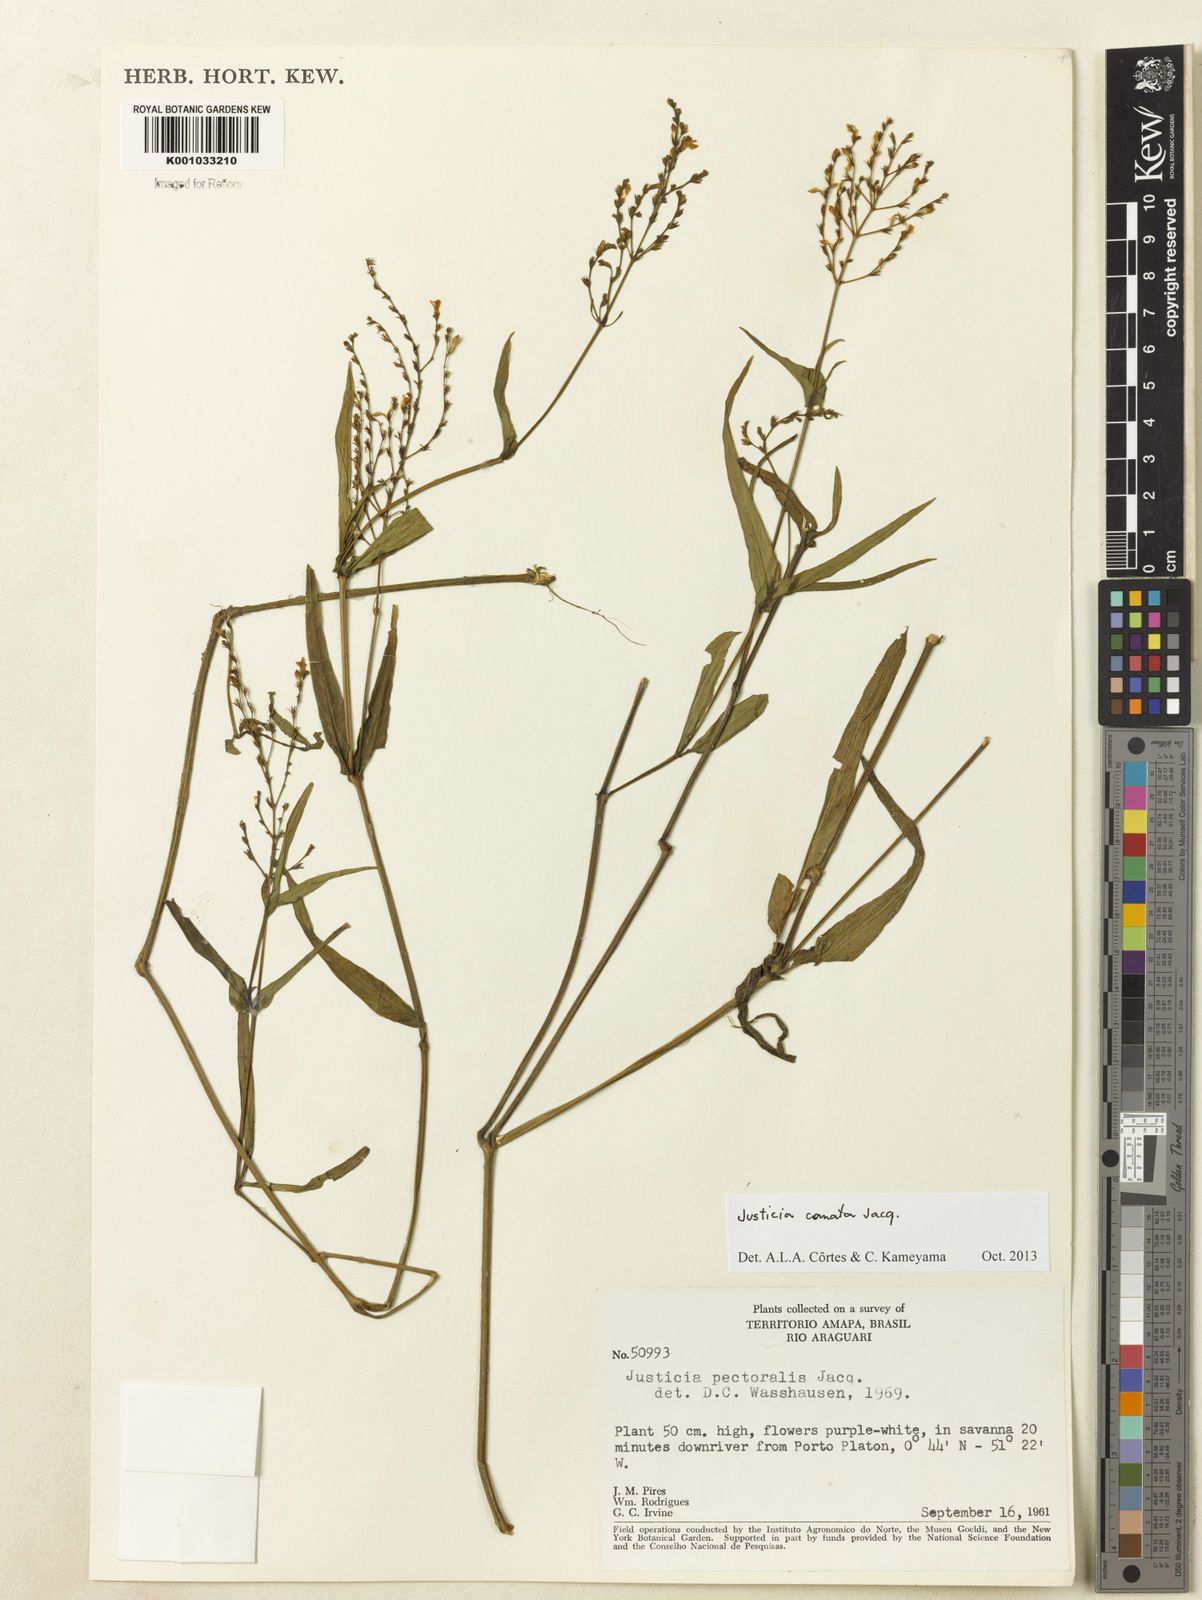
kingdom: Plantae
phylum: Tracheophyta
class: Magnoliopsida
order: Lamiales
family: Acanthaceae
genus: Dianthera
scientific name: Dianthera comata
